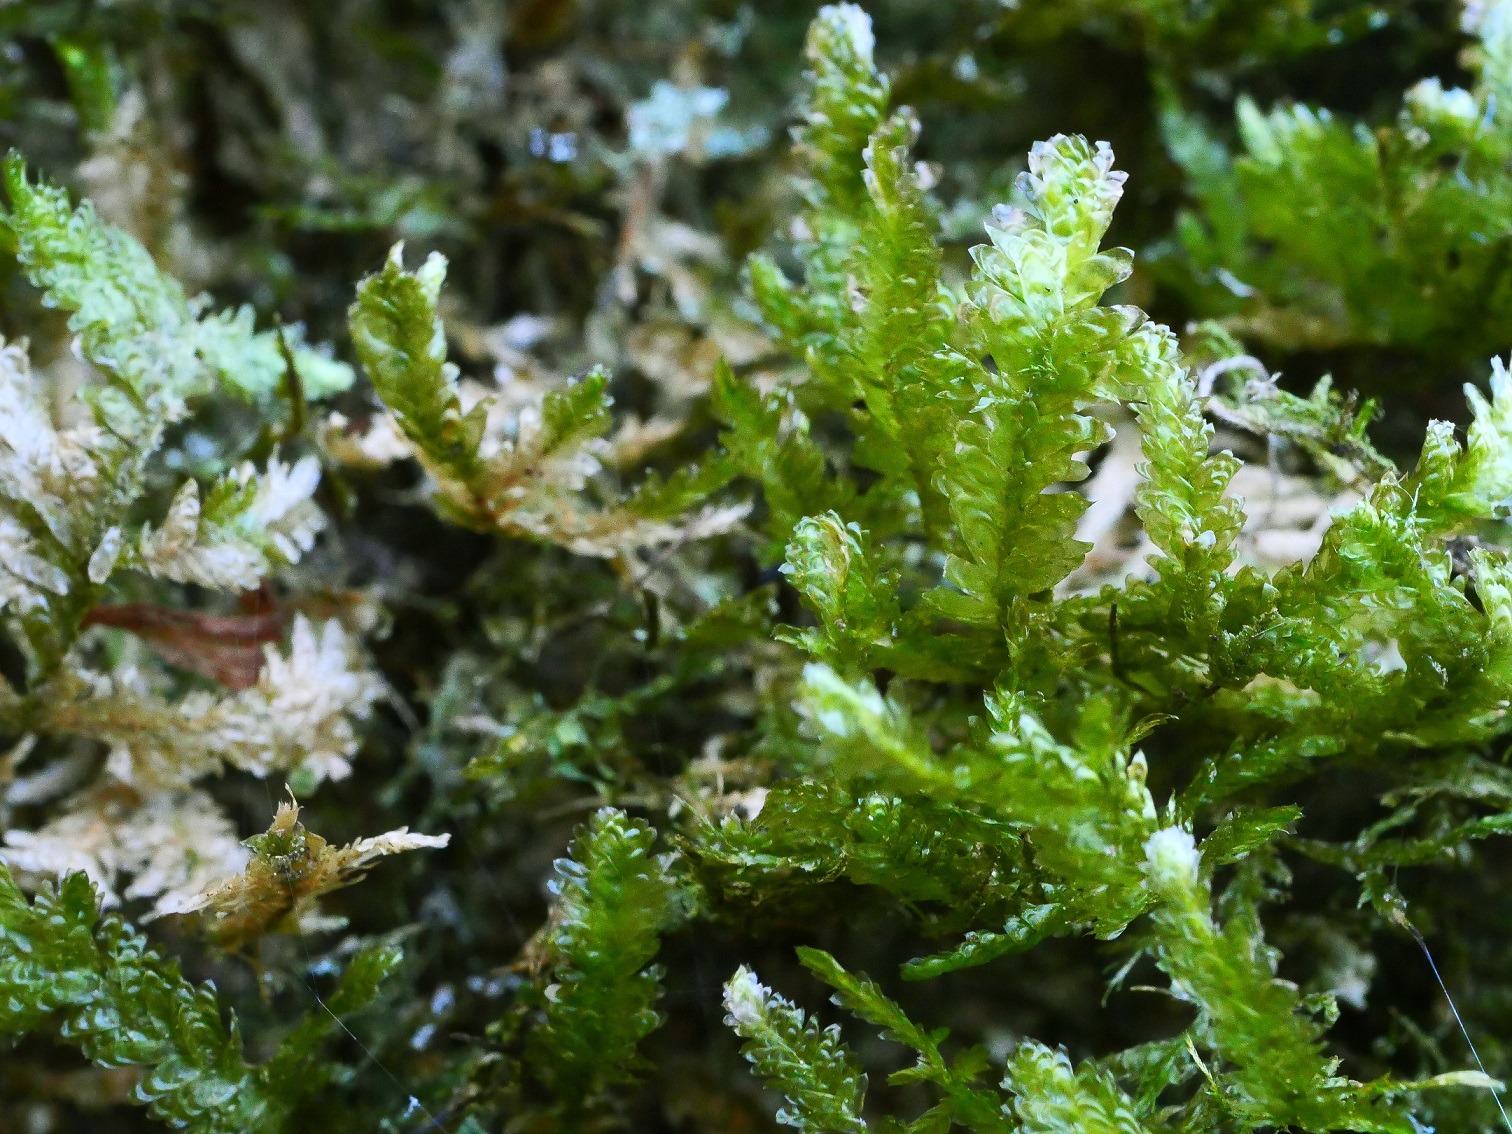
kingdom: Plantae
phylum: Bryophyta
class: Bryopsida
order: Hypnales
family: Neckeraceae
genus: Exsertotheca
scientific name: Exsertotheca crispa
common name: Kruset fladmos
